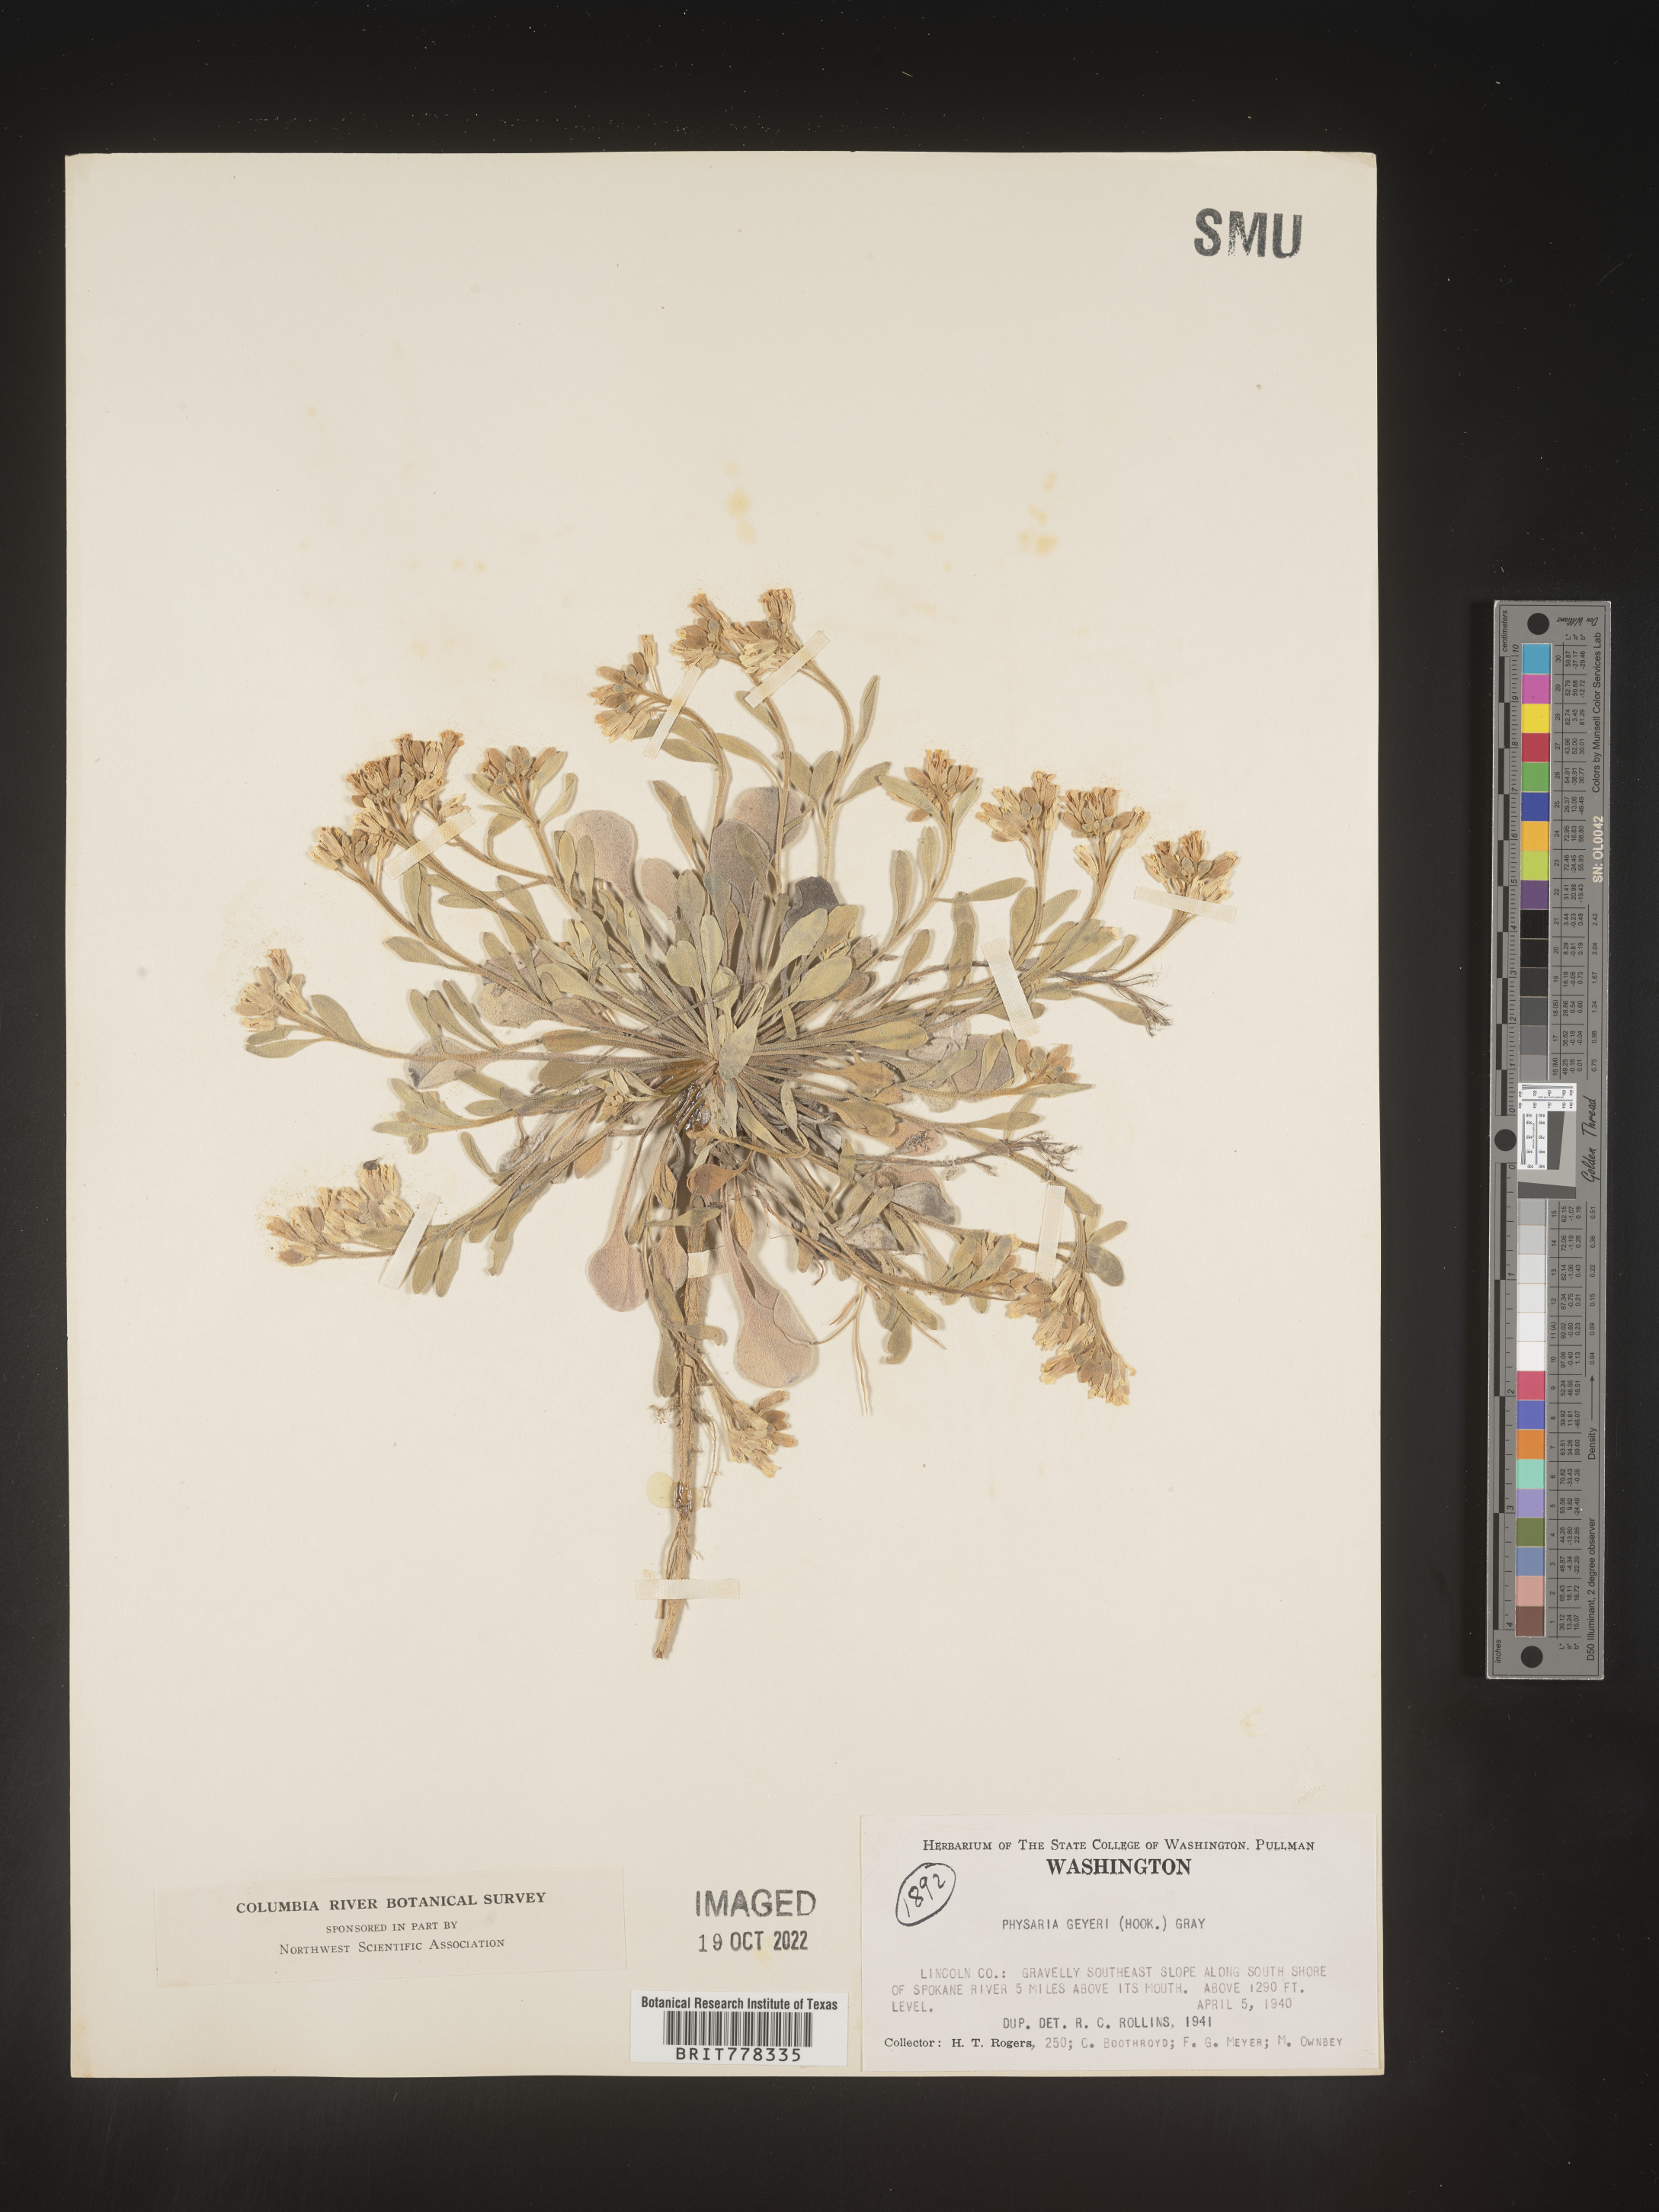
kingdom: Plantae
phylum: Tracheophyta
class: Magnoliopsida
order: Brassicales
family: Brassicaceae
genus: Physaria
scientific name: Physaria
